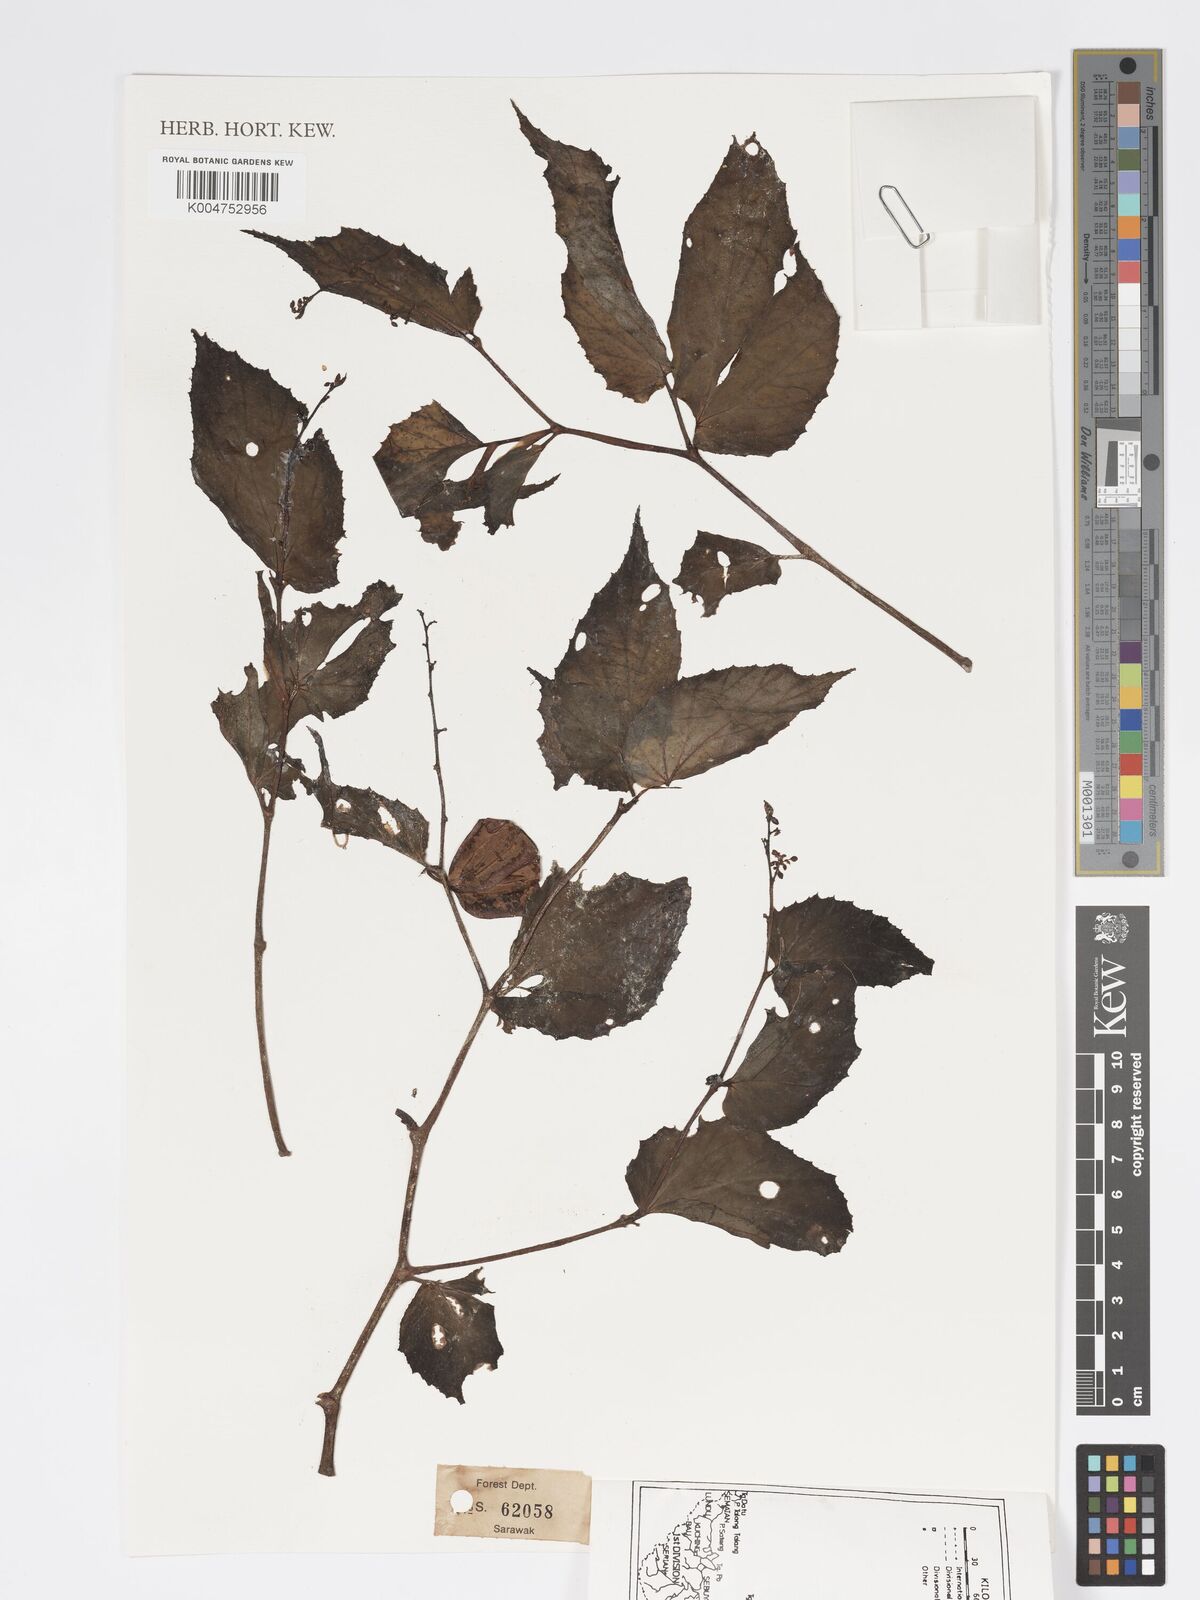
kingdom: Plantae
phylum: Tracheophyta
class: Magnoliopsida
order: Cucurbitales
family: Begoniaceae
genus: Begonia
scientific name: Begonia
